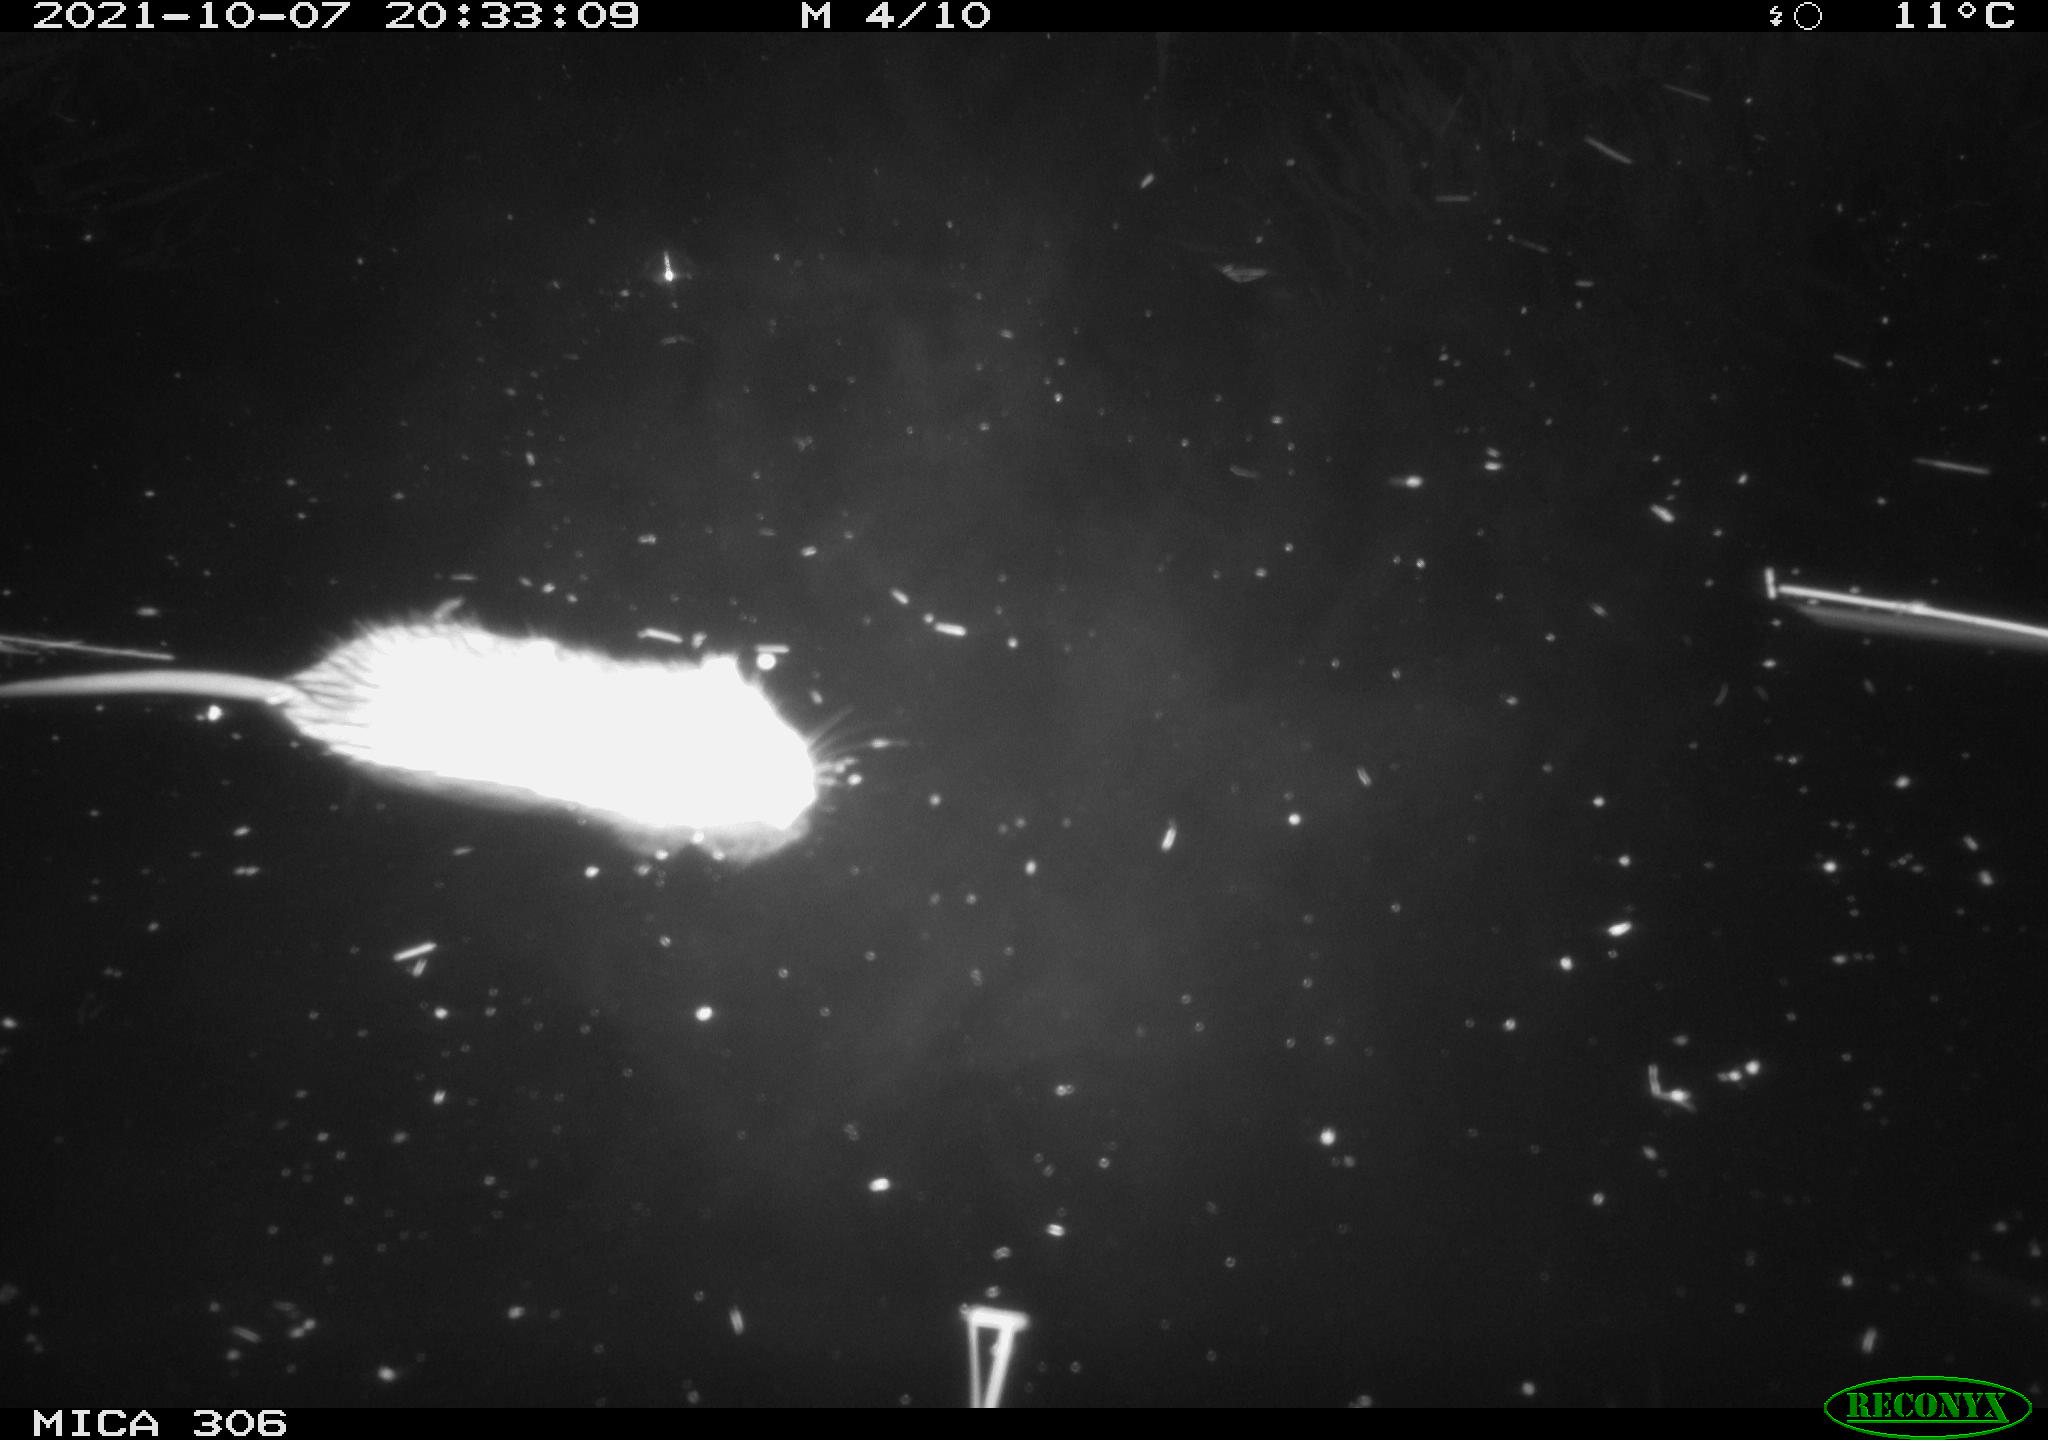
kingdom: Animalia
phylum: Chordata
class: Mammalia
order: Rodentia
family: Cricetidae
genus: Ondatra
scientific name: Ondatra zibethicus
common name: Muskrat
